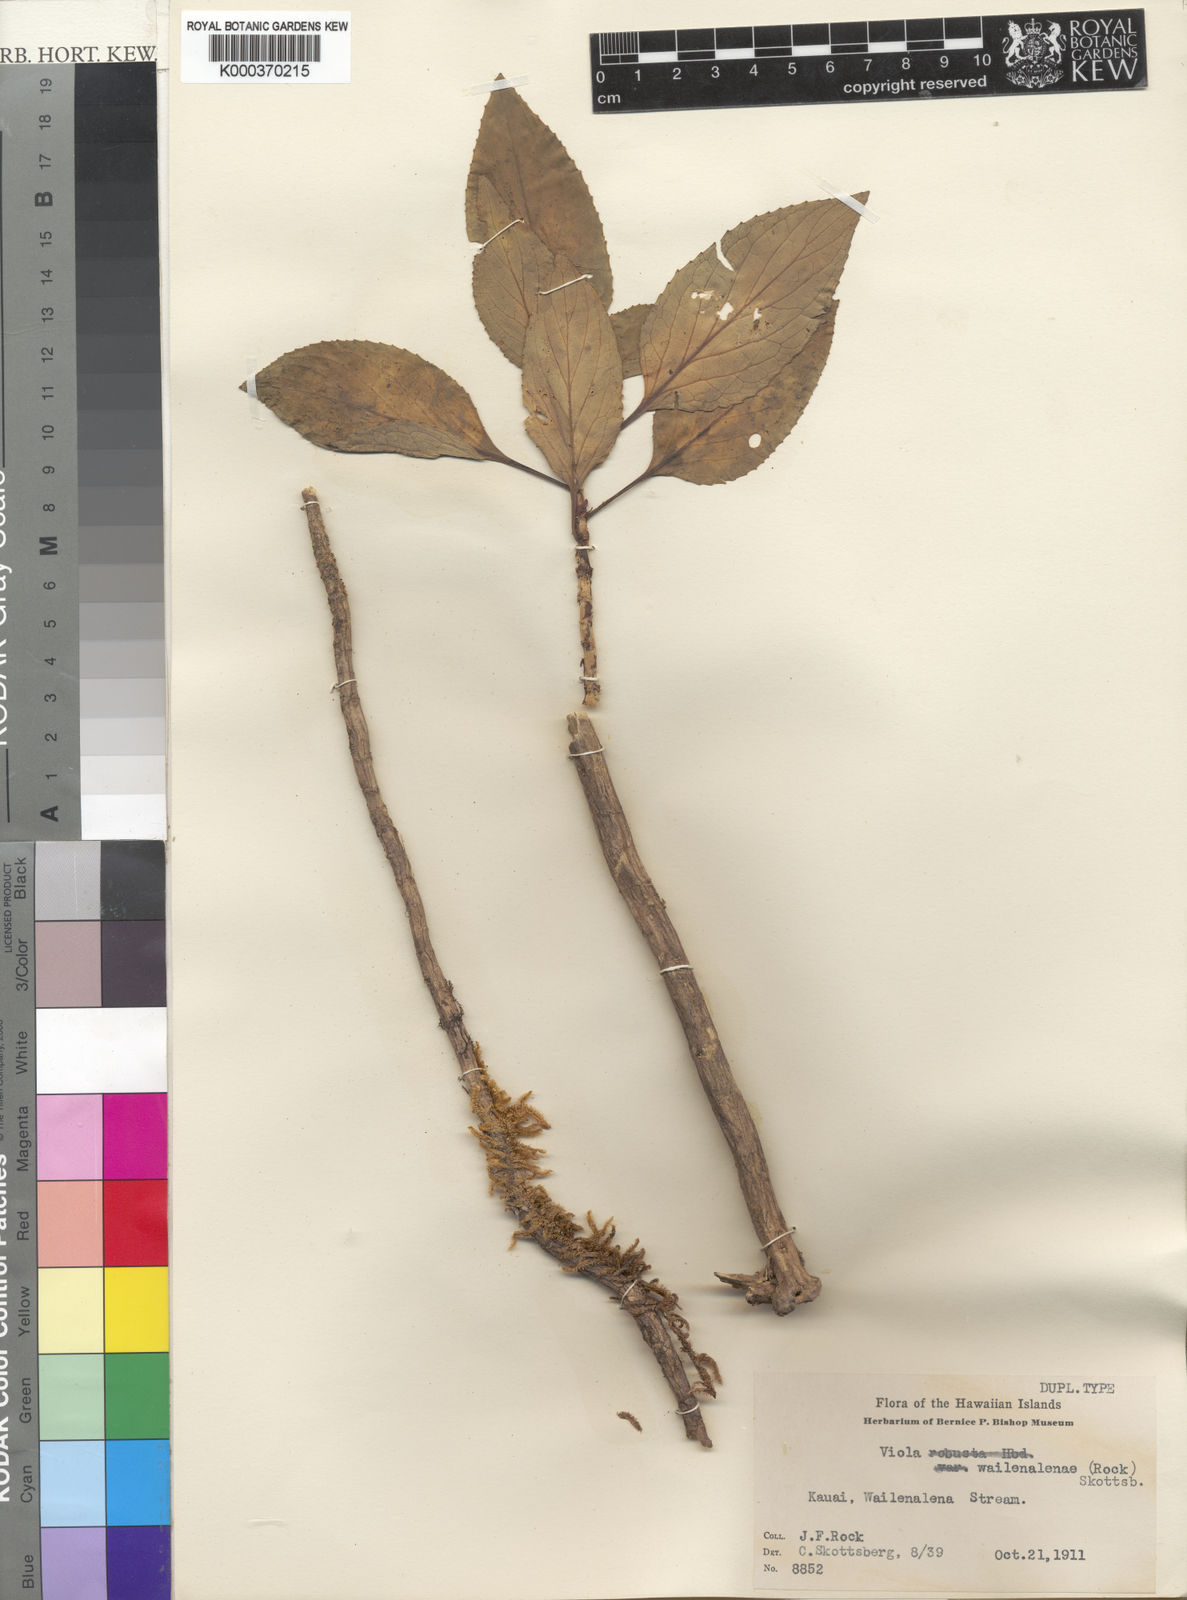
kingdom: Plantae
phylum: Tracheophyta
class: Magnoliopsida
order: Malpighiales
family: Violaceae
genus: Viola
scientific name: Viola wailenalenae
